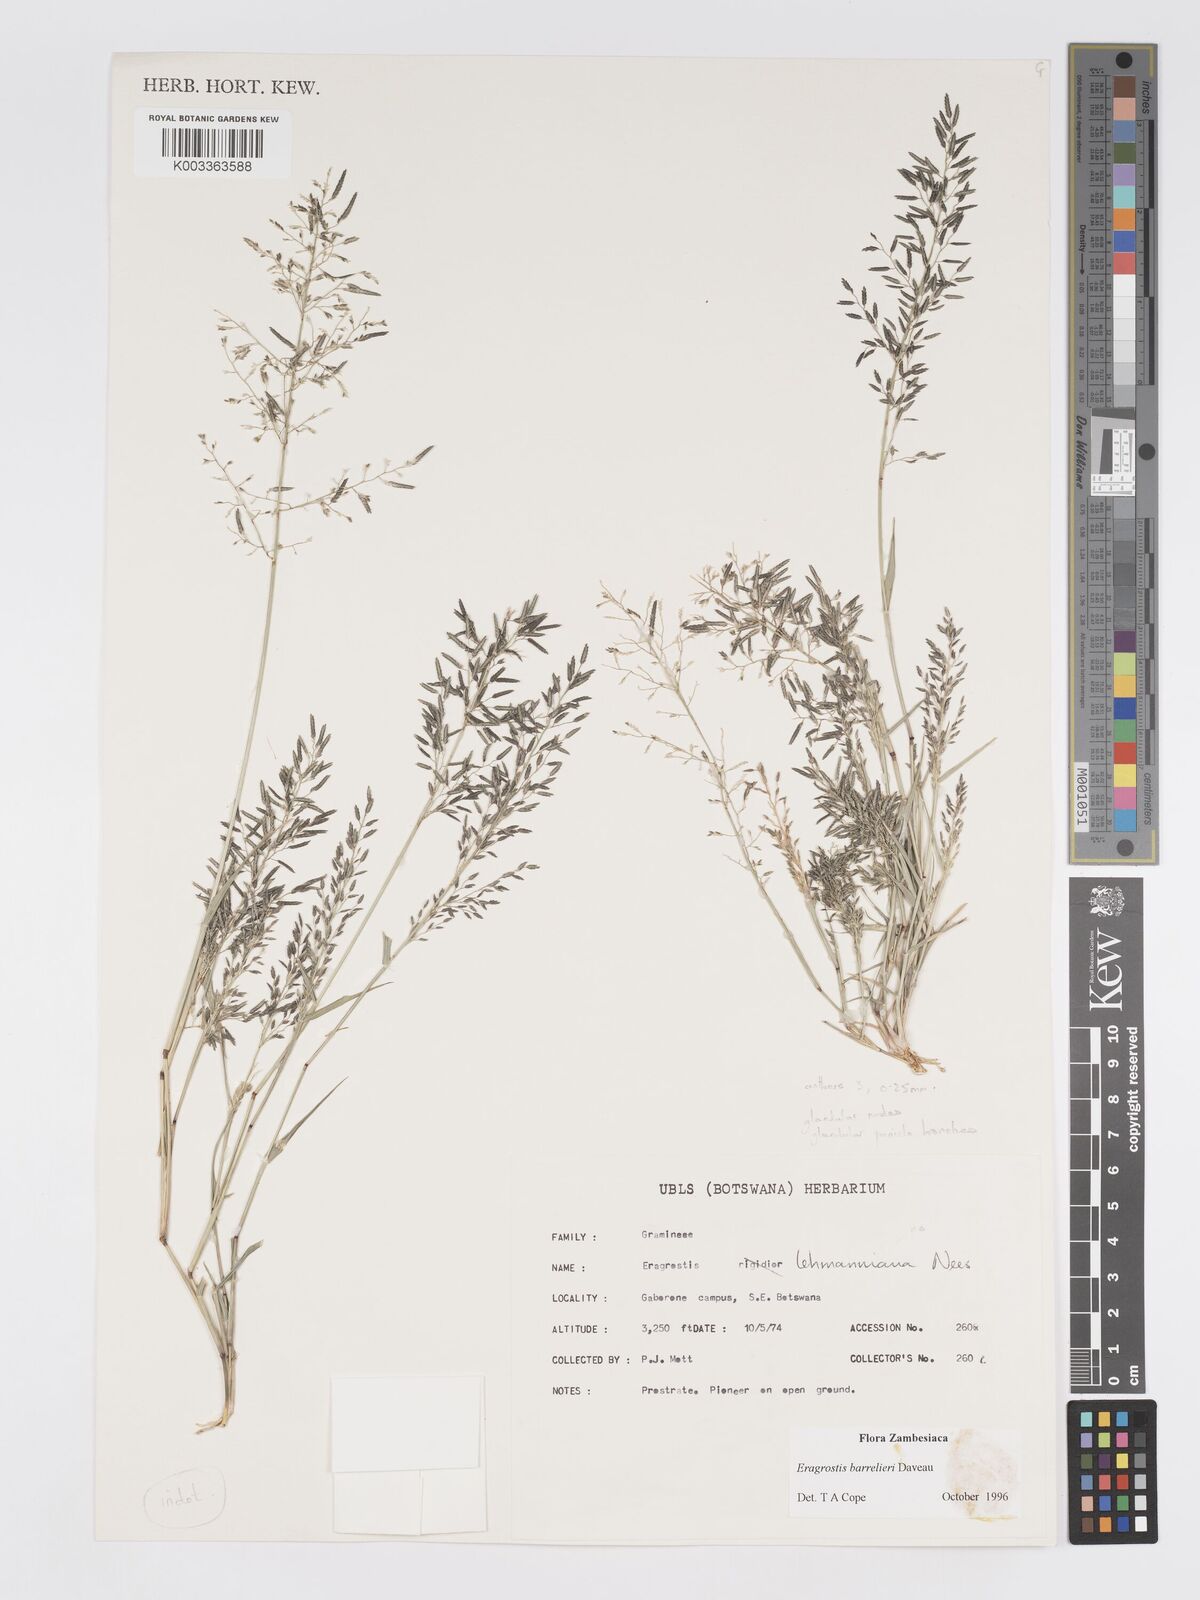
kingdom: Plantae
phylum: Tracheophyta
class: Liliopsida
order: Poales
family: Poaceae
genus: Eragrostis
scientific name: Eragrostis barrelieri
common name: Mediterranean lovegrass
